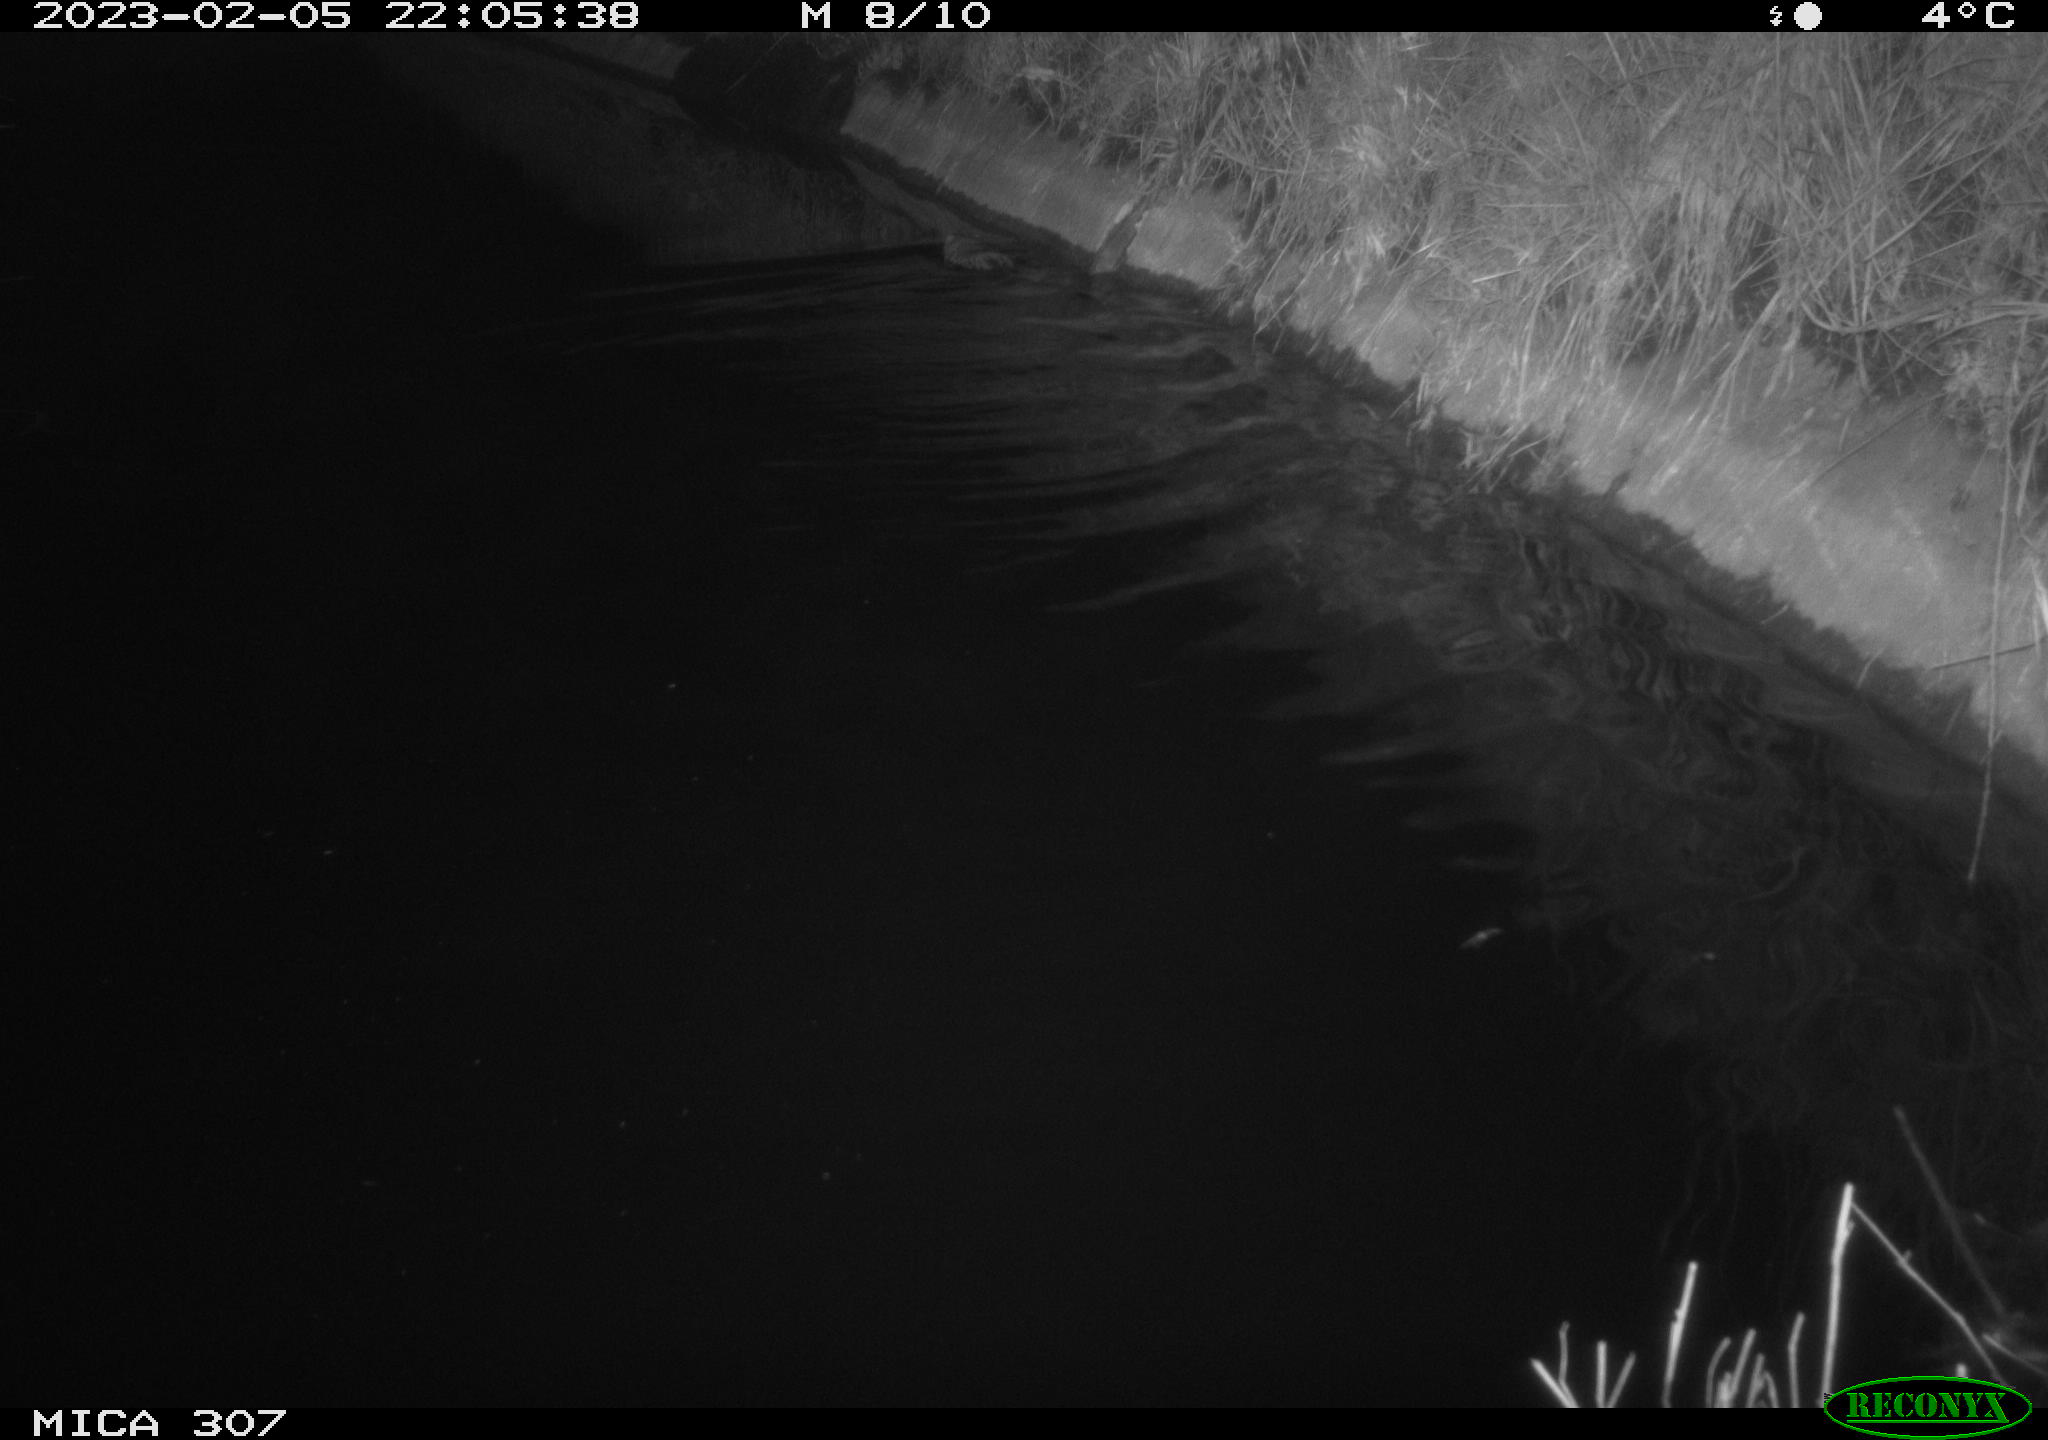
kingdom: Animalia
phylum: Chordata
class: Mammalia
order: Rodentia
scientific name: Rodentia
